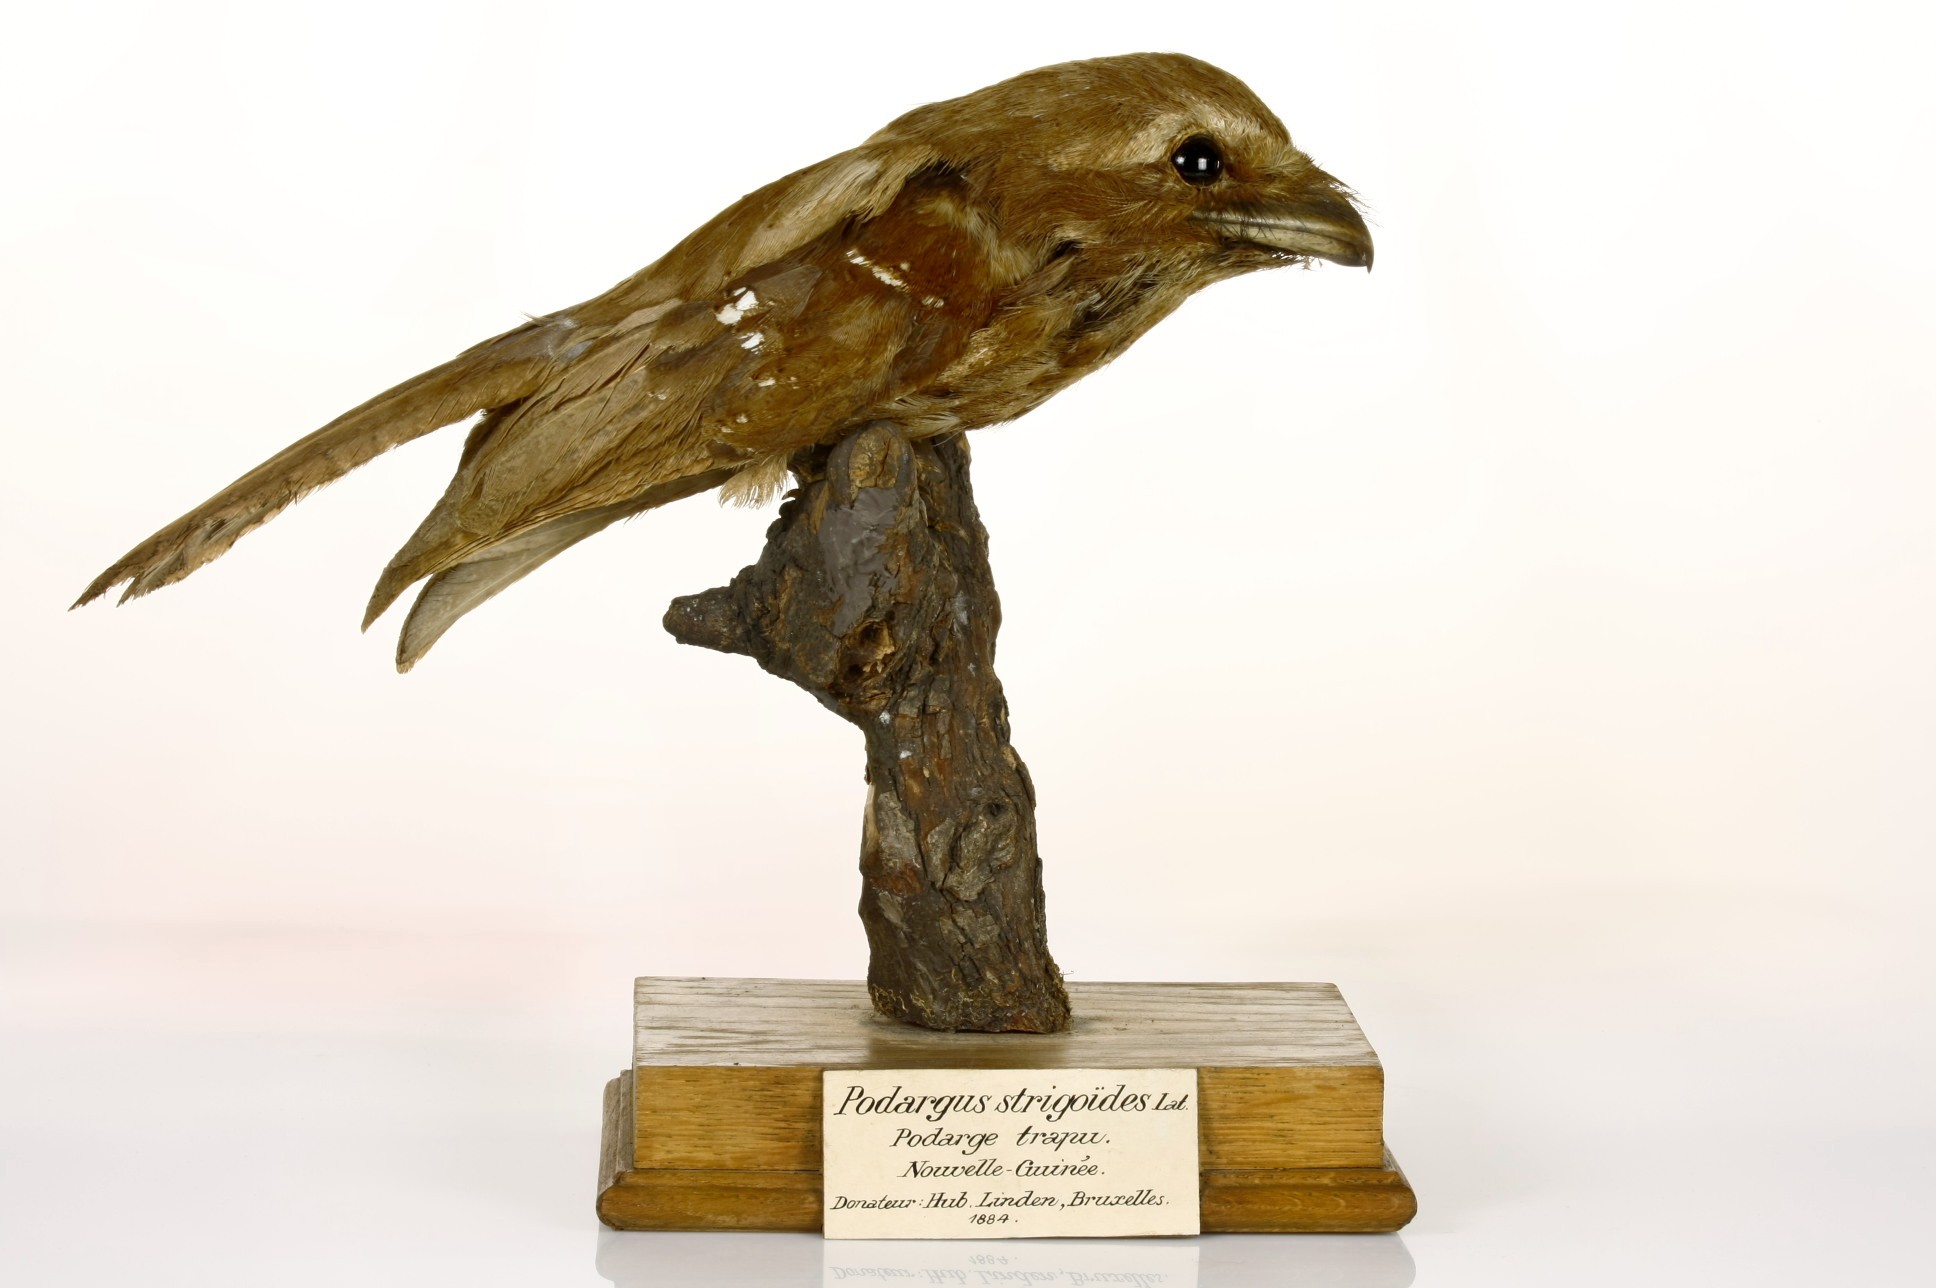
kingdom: Animalia
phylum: Chordata
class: Aves
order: Caprimulgiformes
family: Podargidae
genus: Rigidipenna
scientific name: Rigidipenna inexpectata
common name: Solomons frogmouth
